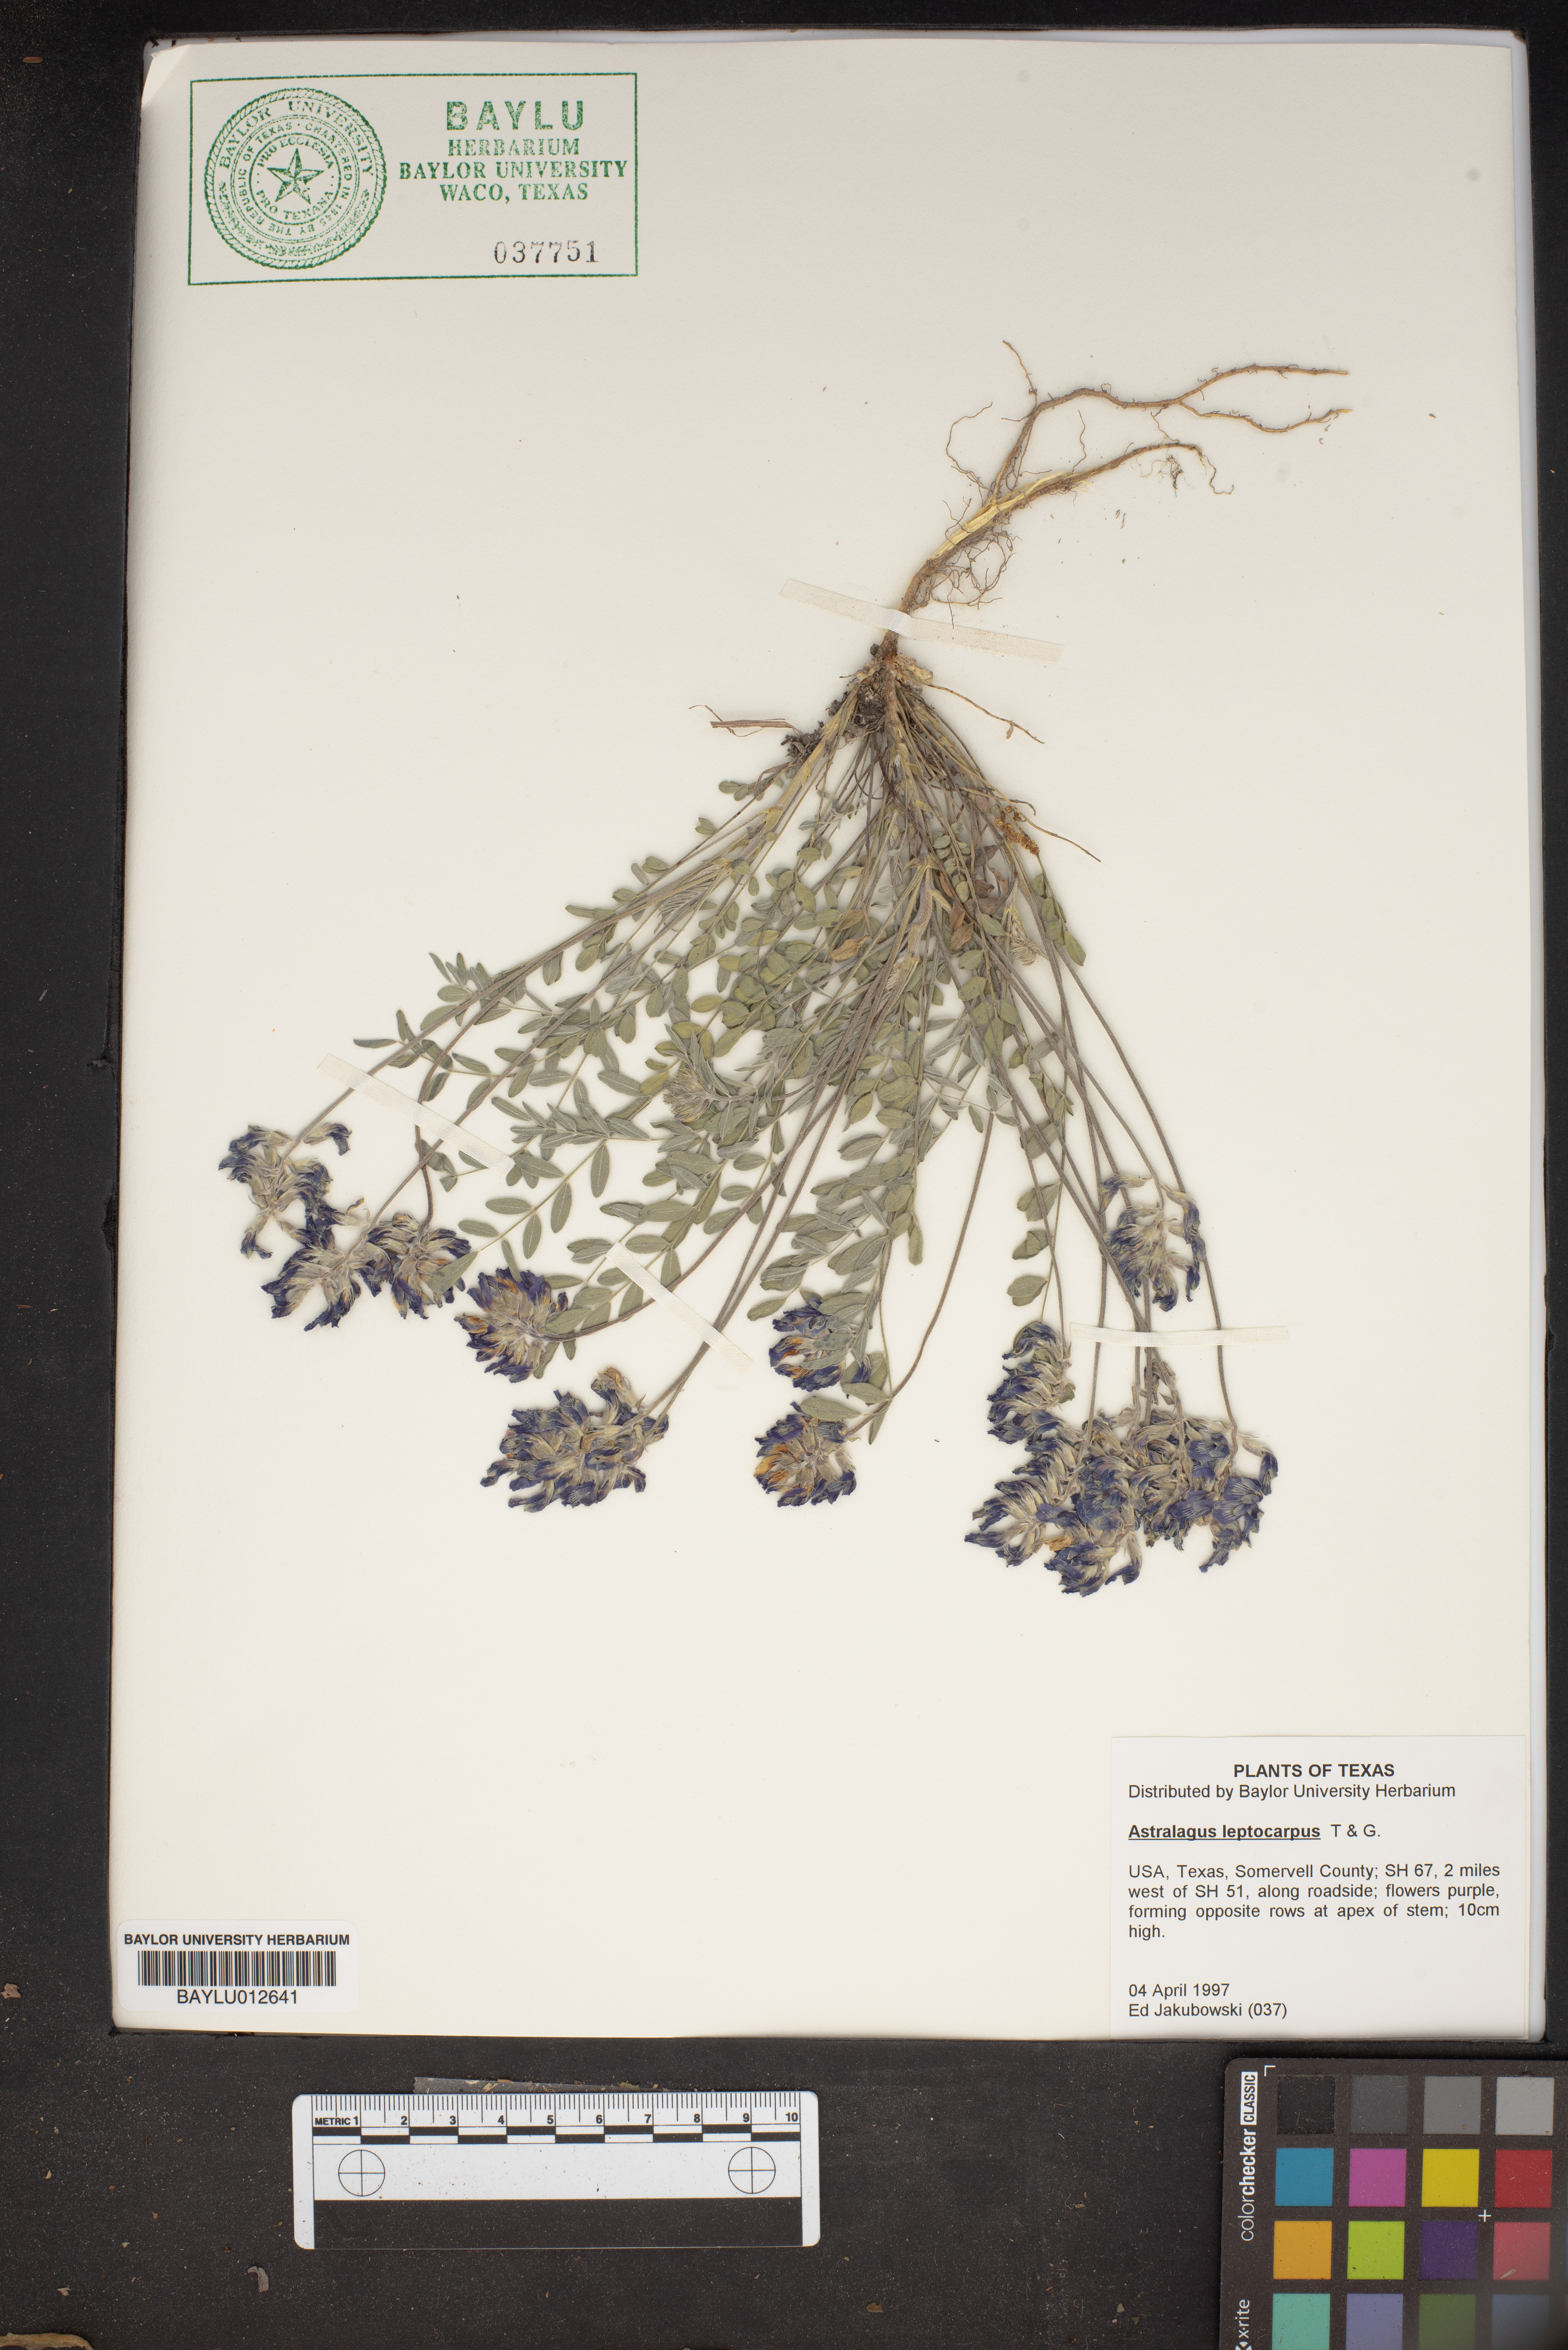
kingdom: Plantae
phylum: Tracheophyta
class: Magnoliopsida
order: Fabales
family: Fabaceae
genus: Astragalus
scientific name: Astragalus leptocarpus
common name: Bodkin milk-vetch
